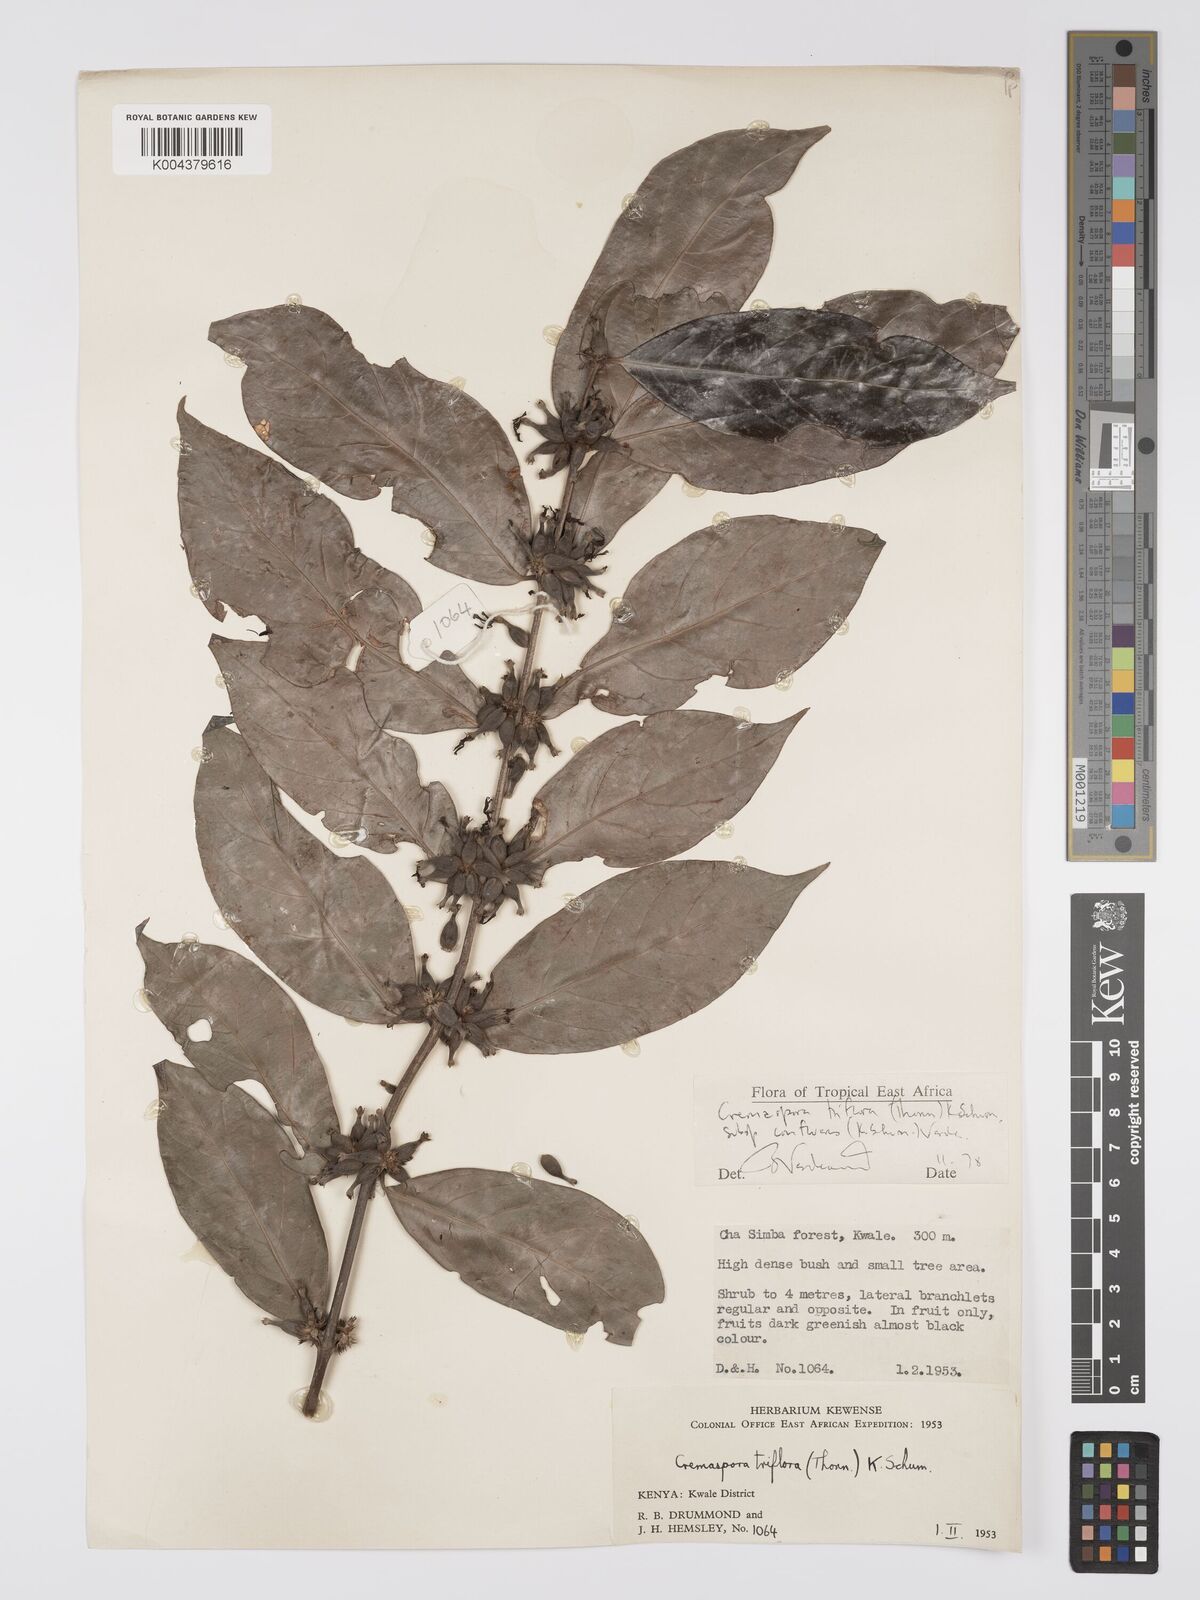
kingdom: Plantae
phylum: Tracheophyta
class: Magnoliopsida
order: Gentianales
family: Rubiaceae
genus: Cremaspora
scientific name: Cremaspora triflora
